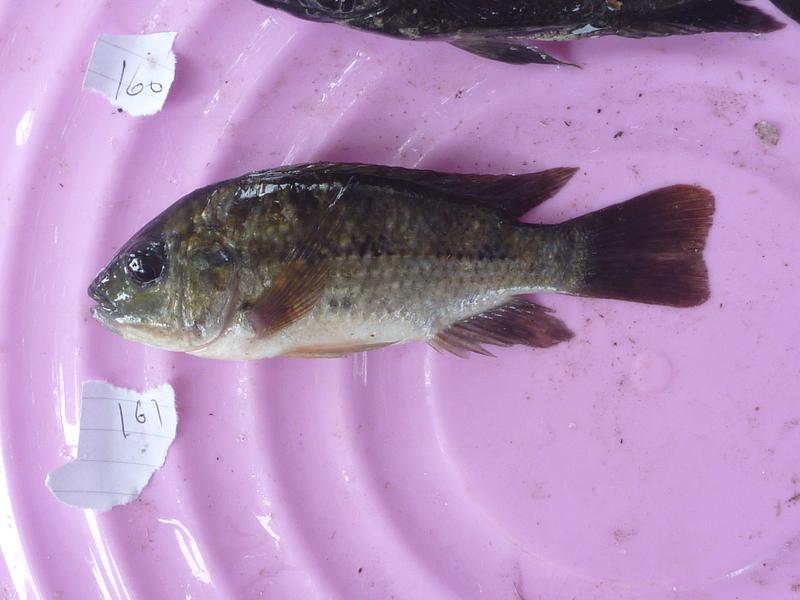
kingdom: Animalia
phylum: Chordata
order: Perciformes
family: Cichlidae
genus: Oreochromis
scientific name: Oreochromis shiranus
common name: Chilwa tilapia
